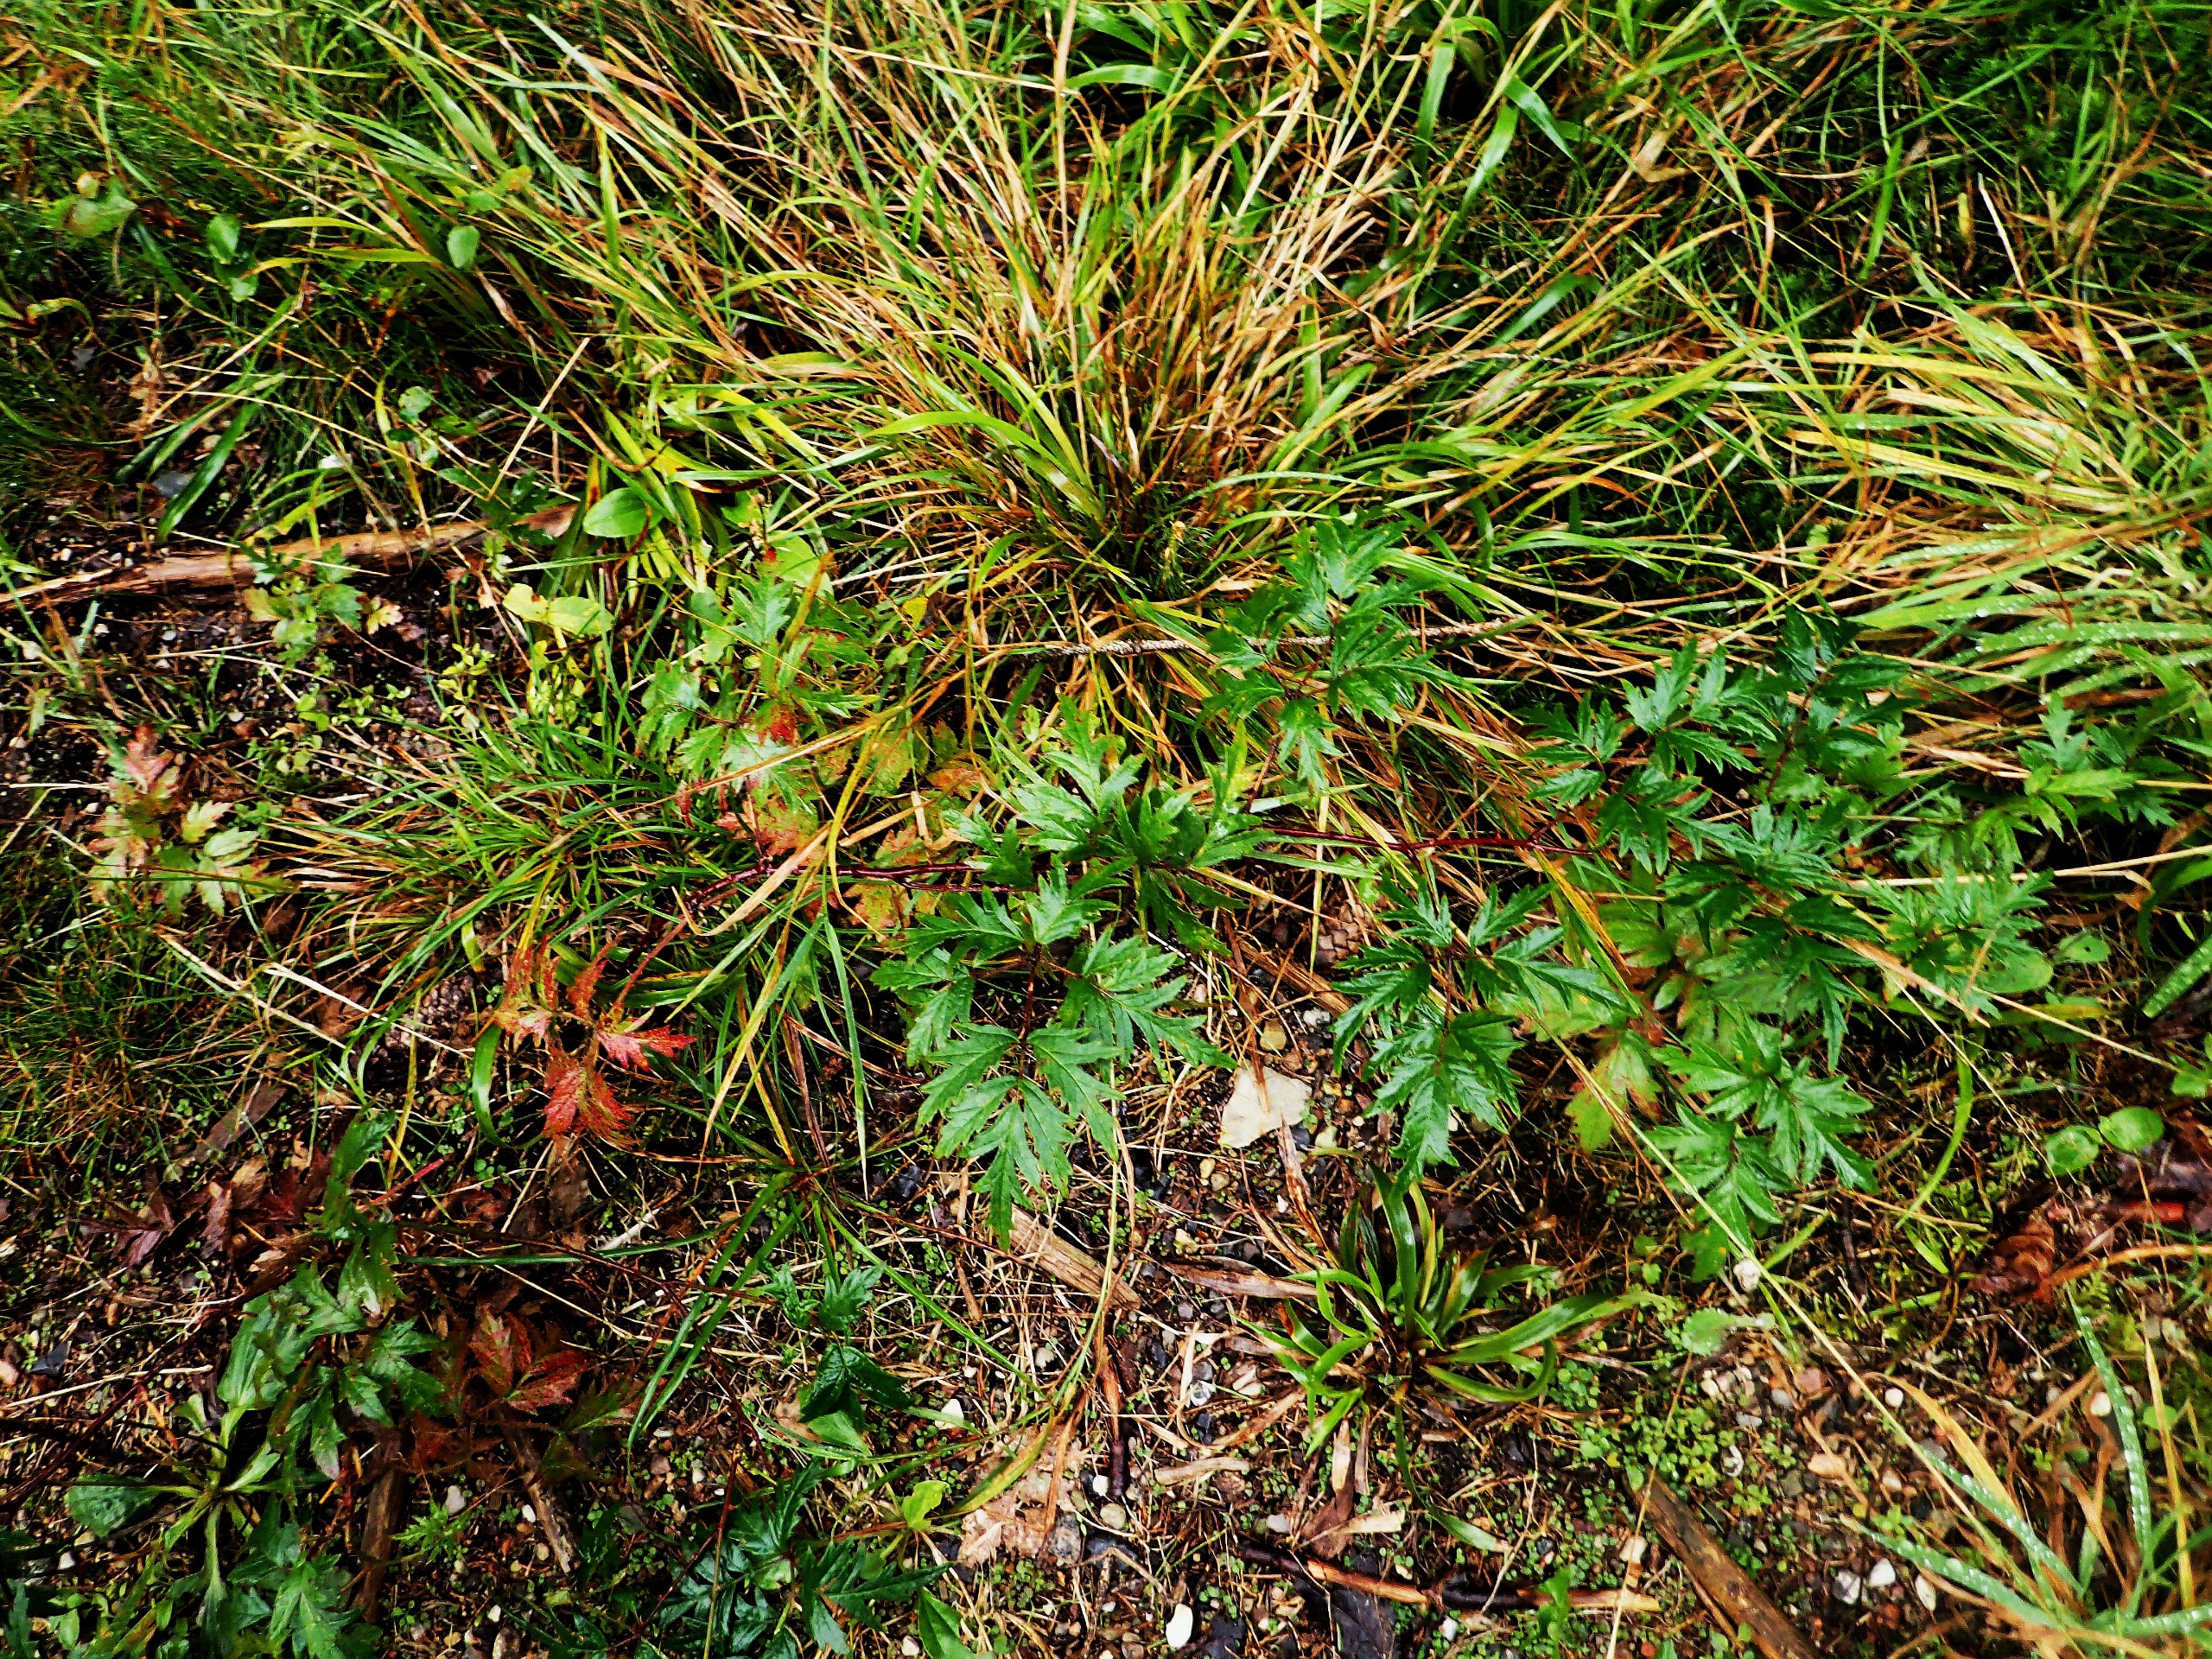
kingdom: Plantae
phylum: Tracheophyta
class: Magnoliopsida
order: Rosales
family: Rosaceae
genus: Rubus
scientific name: Rubus laciniatus
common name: Fliget brombær
